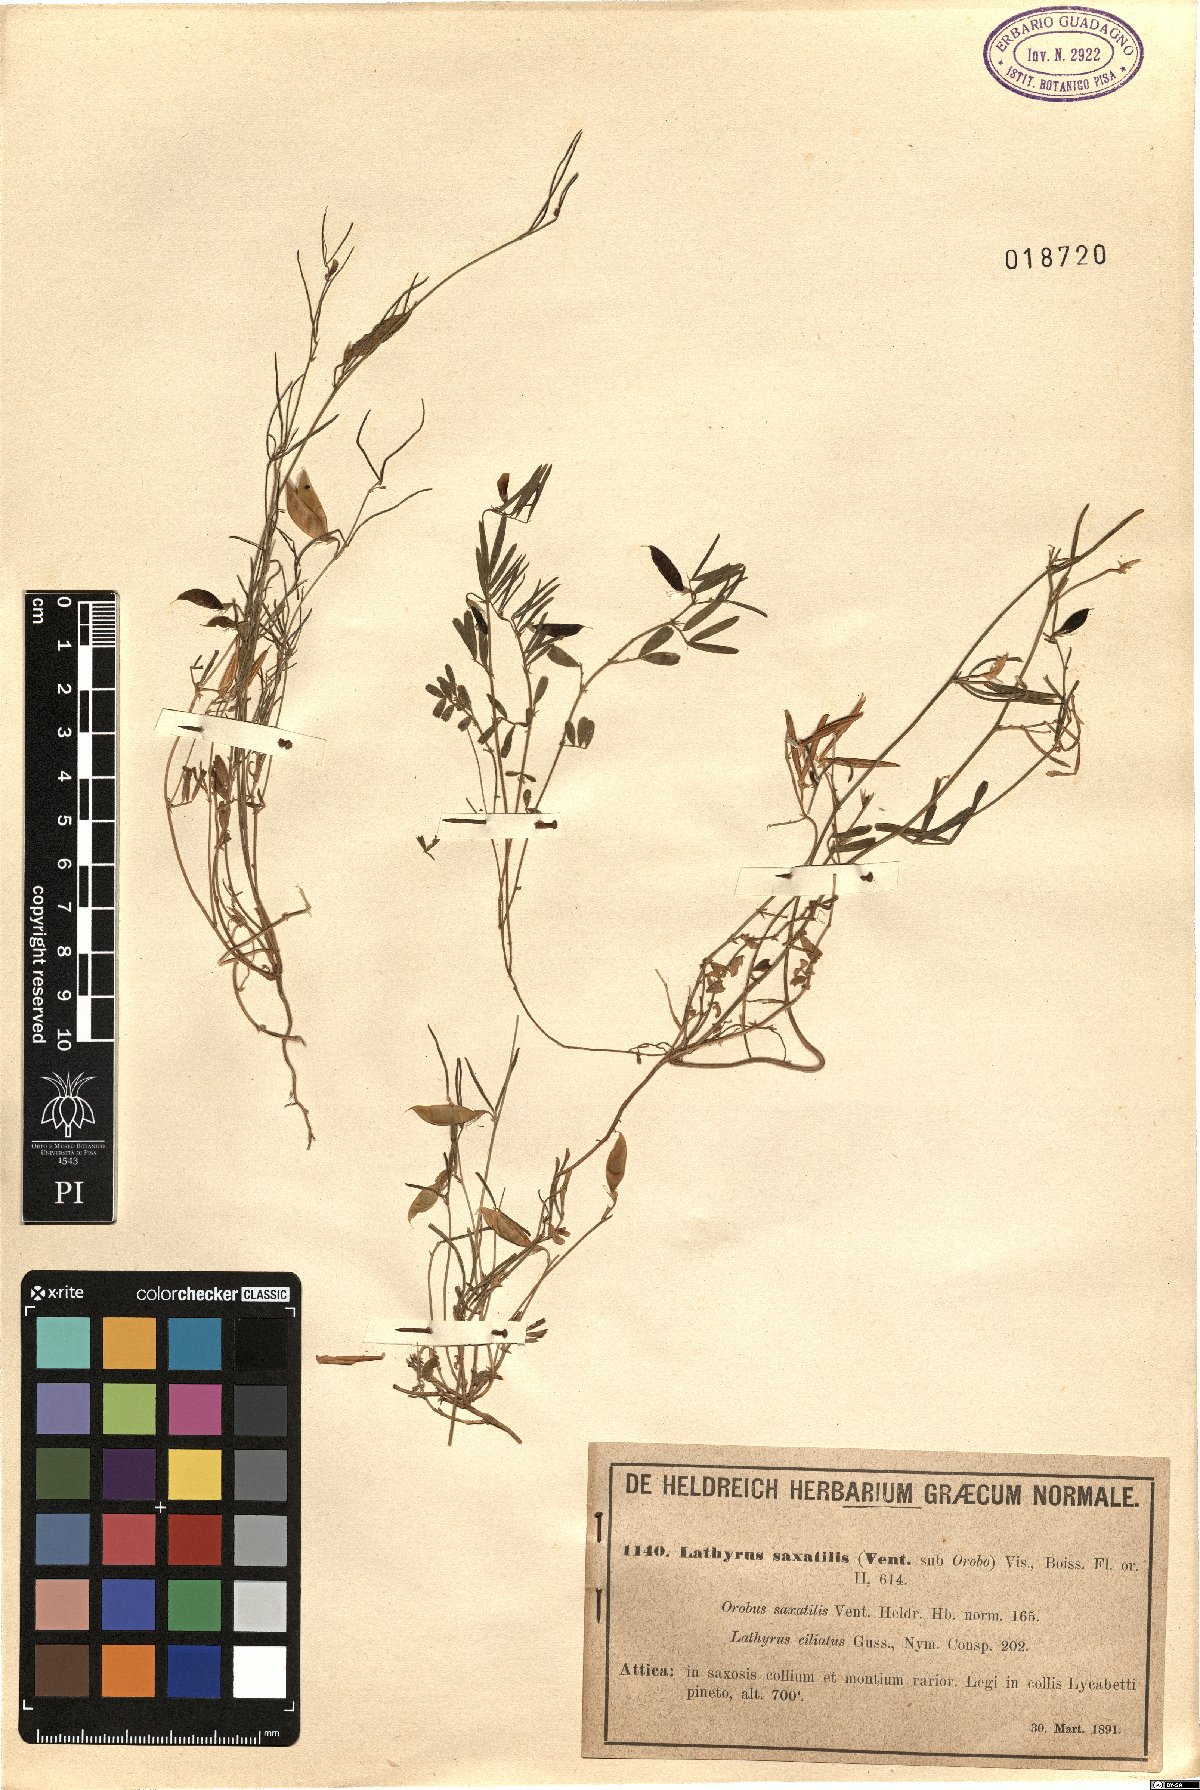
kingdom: Plantae
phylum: Tracheophyta
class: Magnoliopsida
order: Fabales
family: Fabaceae
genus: Lathyrus
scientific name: Lathyrus saxatilis
